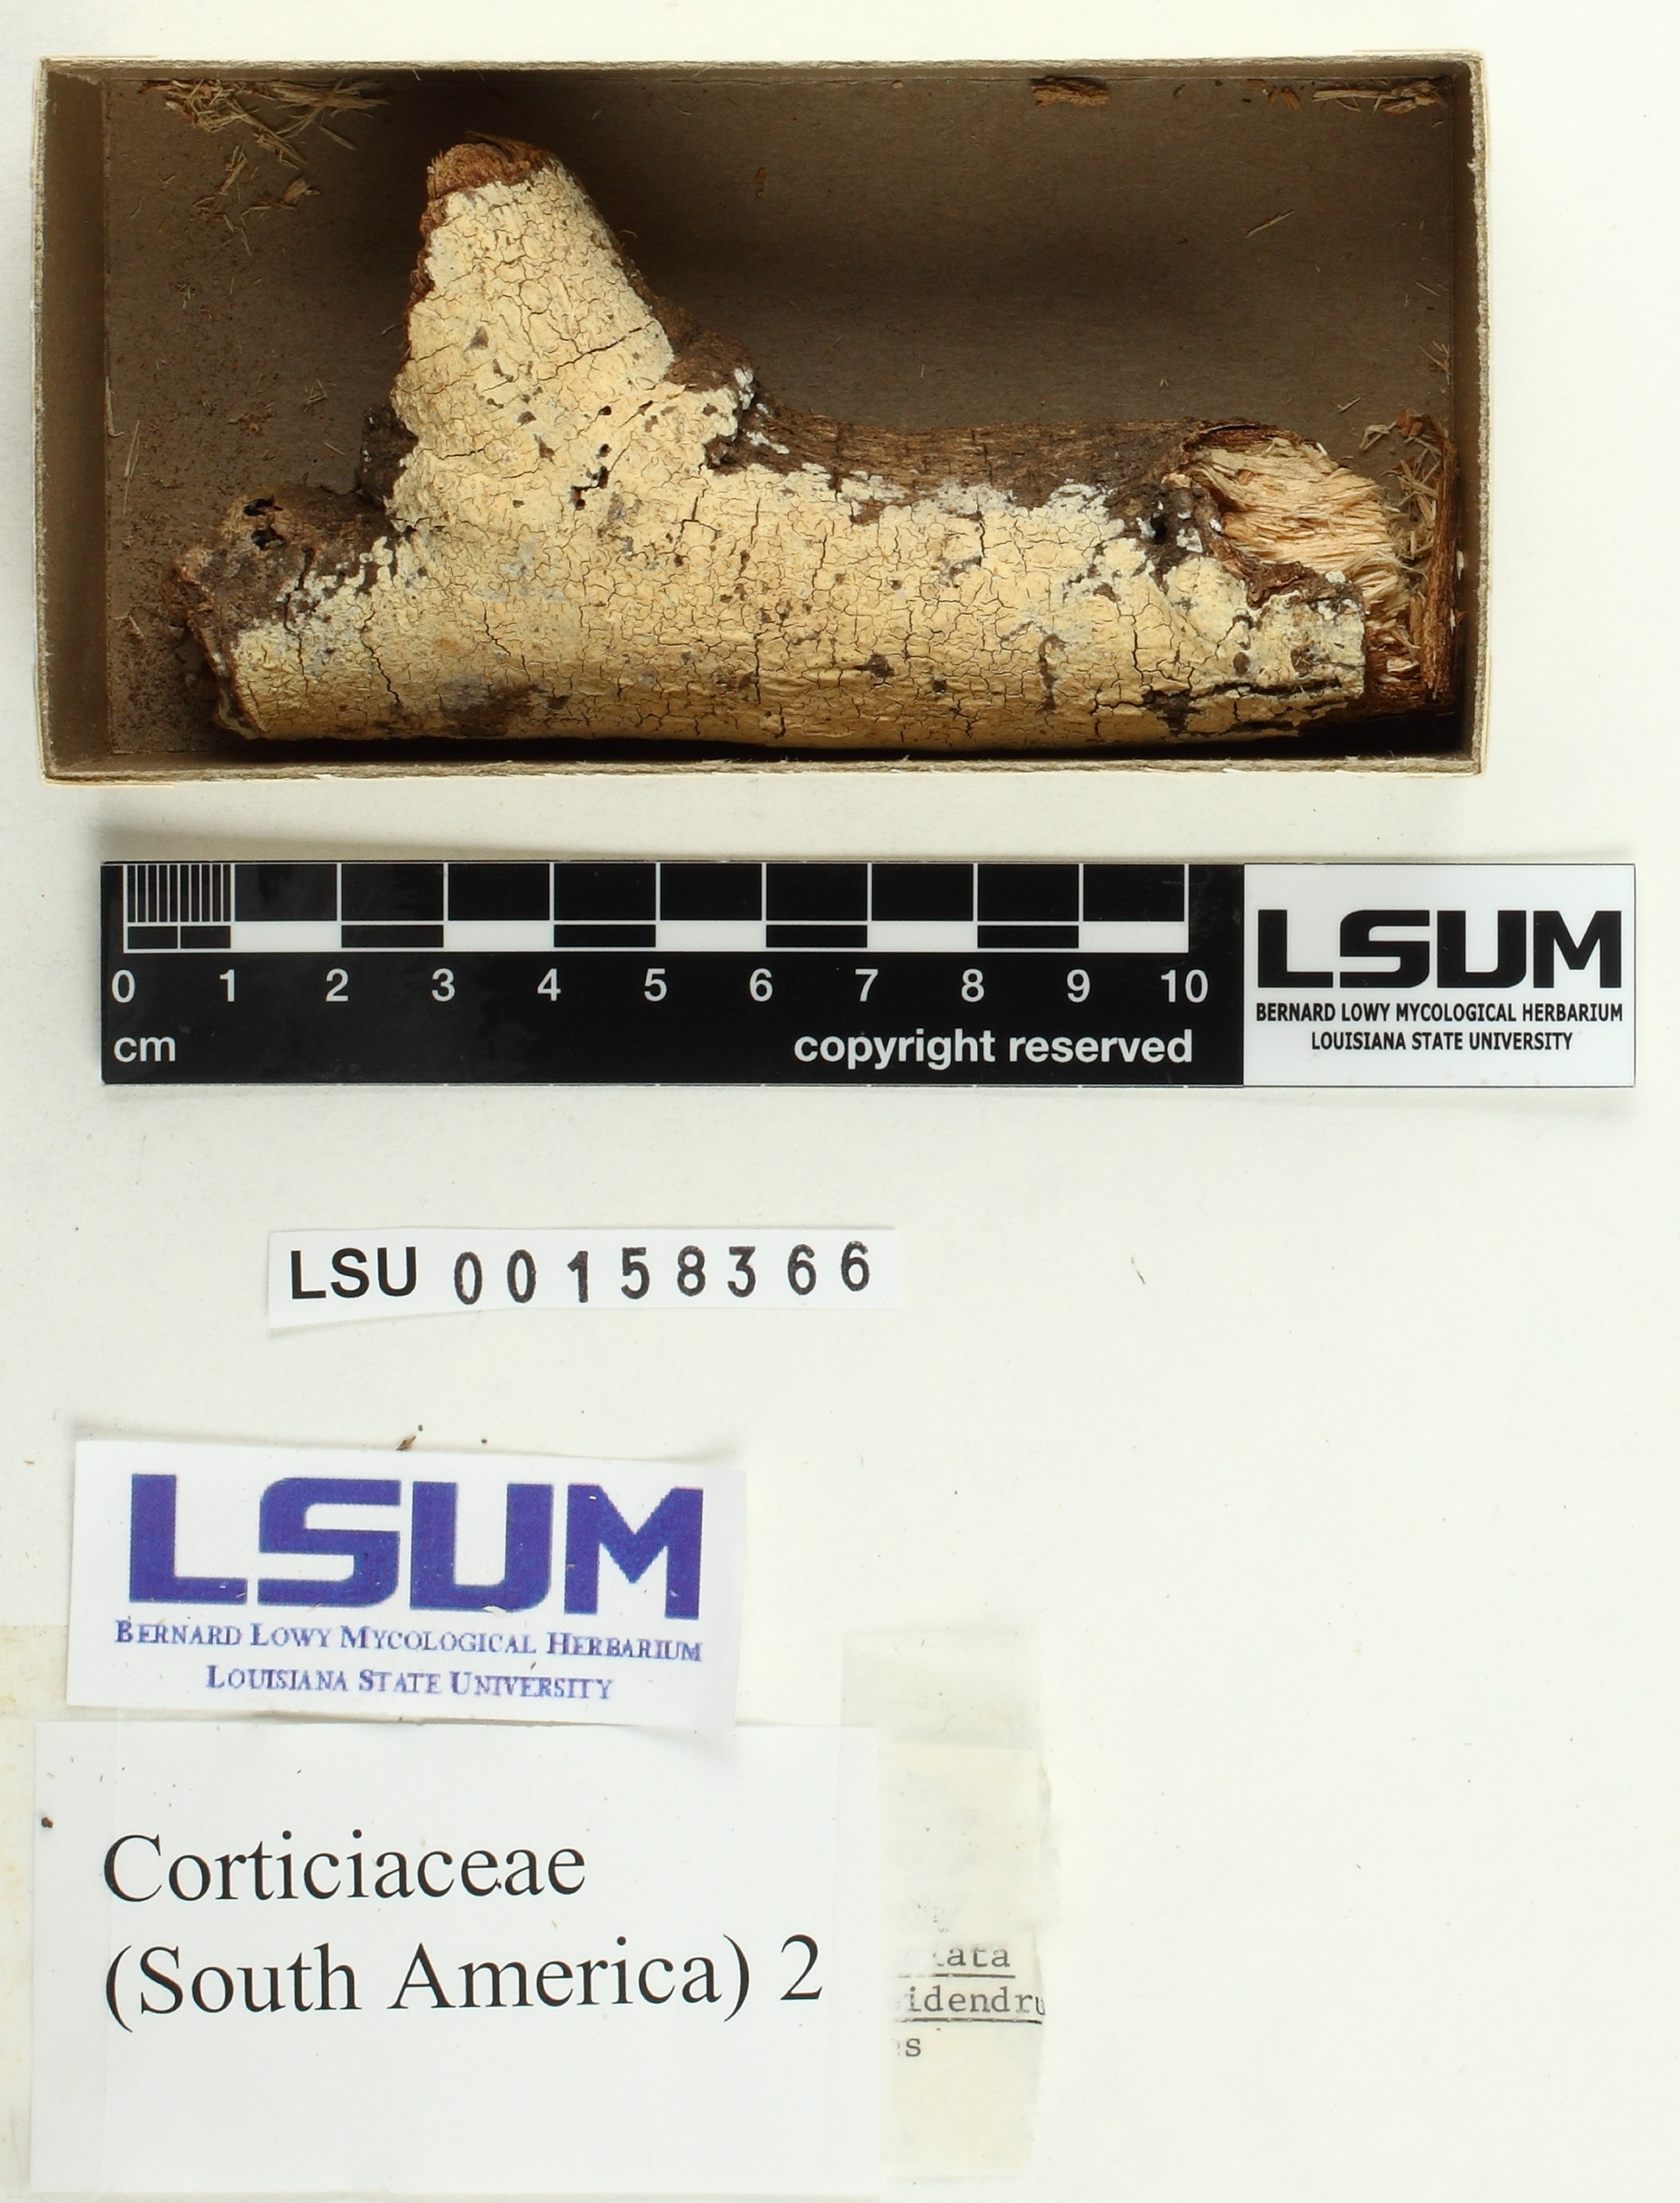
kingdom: Fungi
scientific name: Fungi
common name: Fungi
